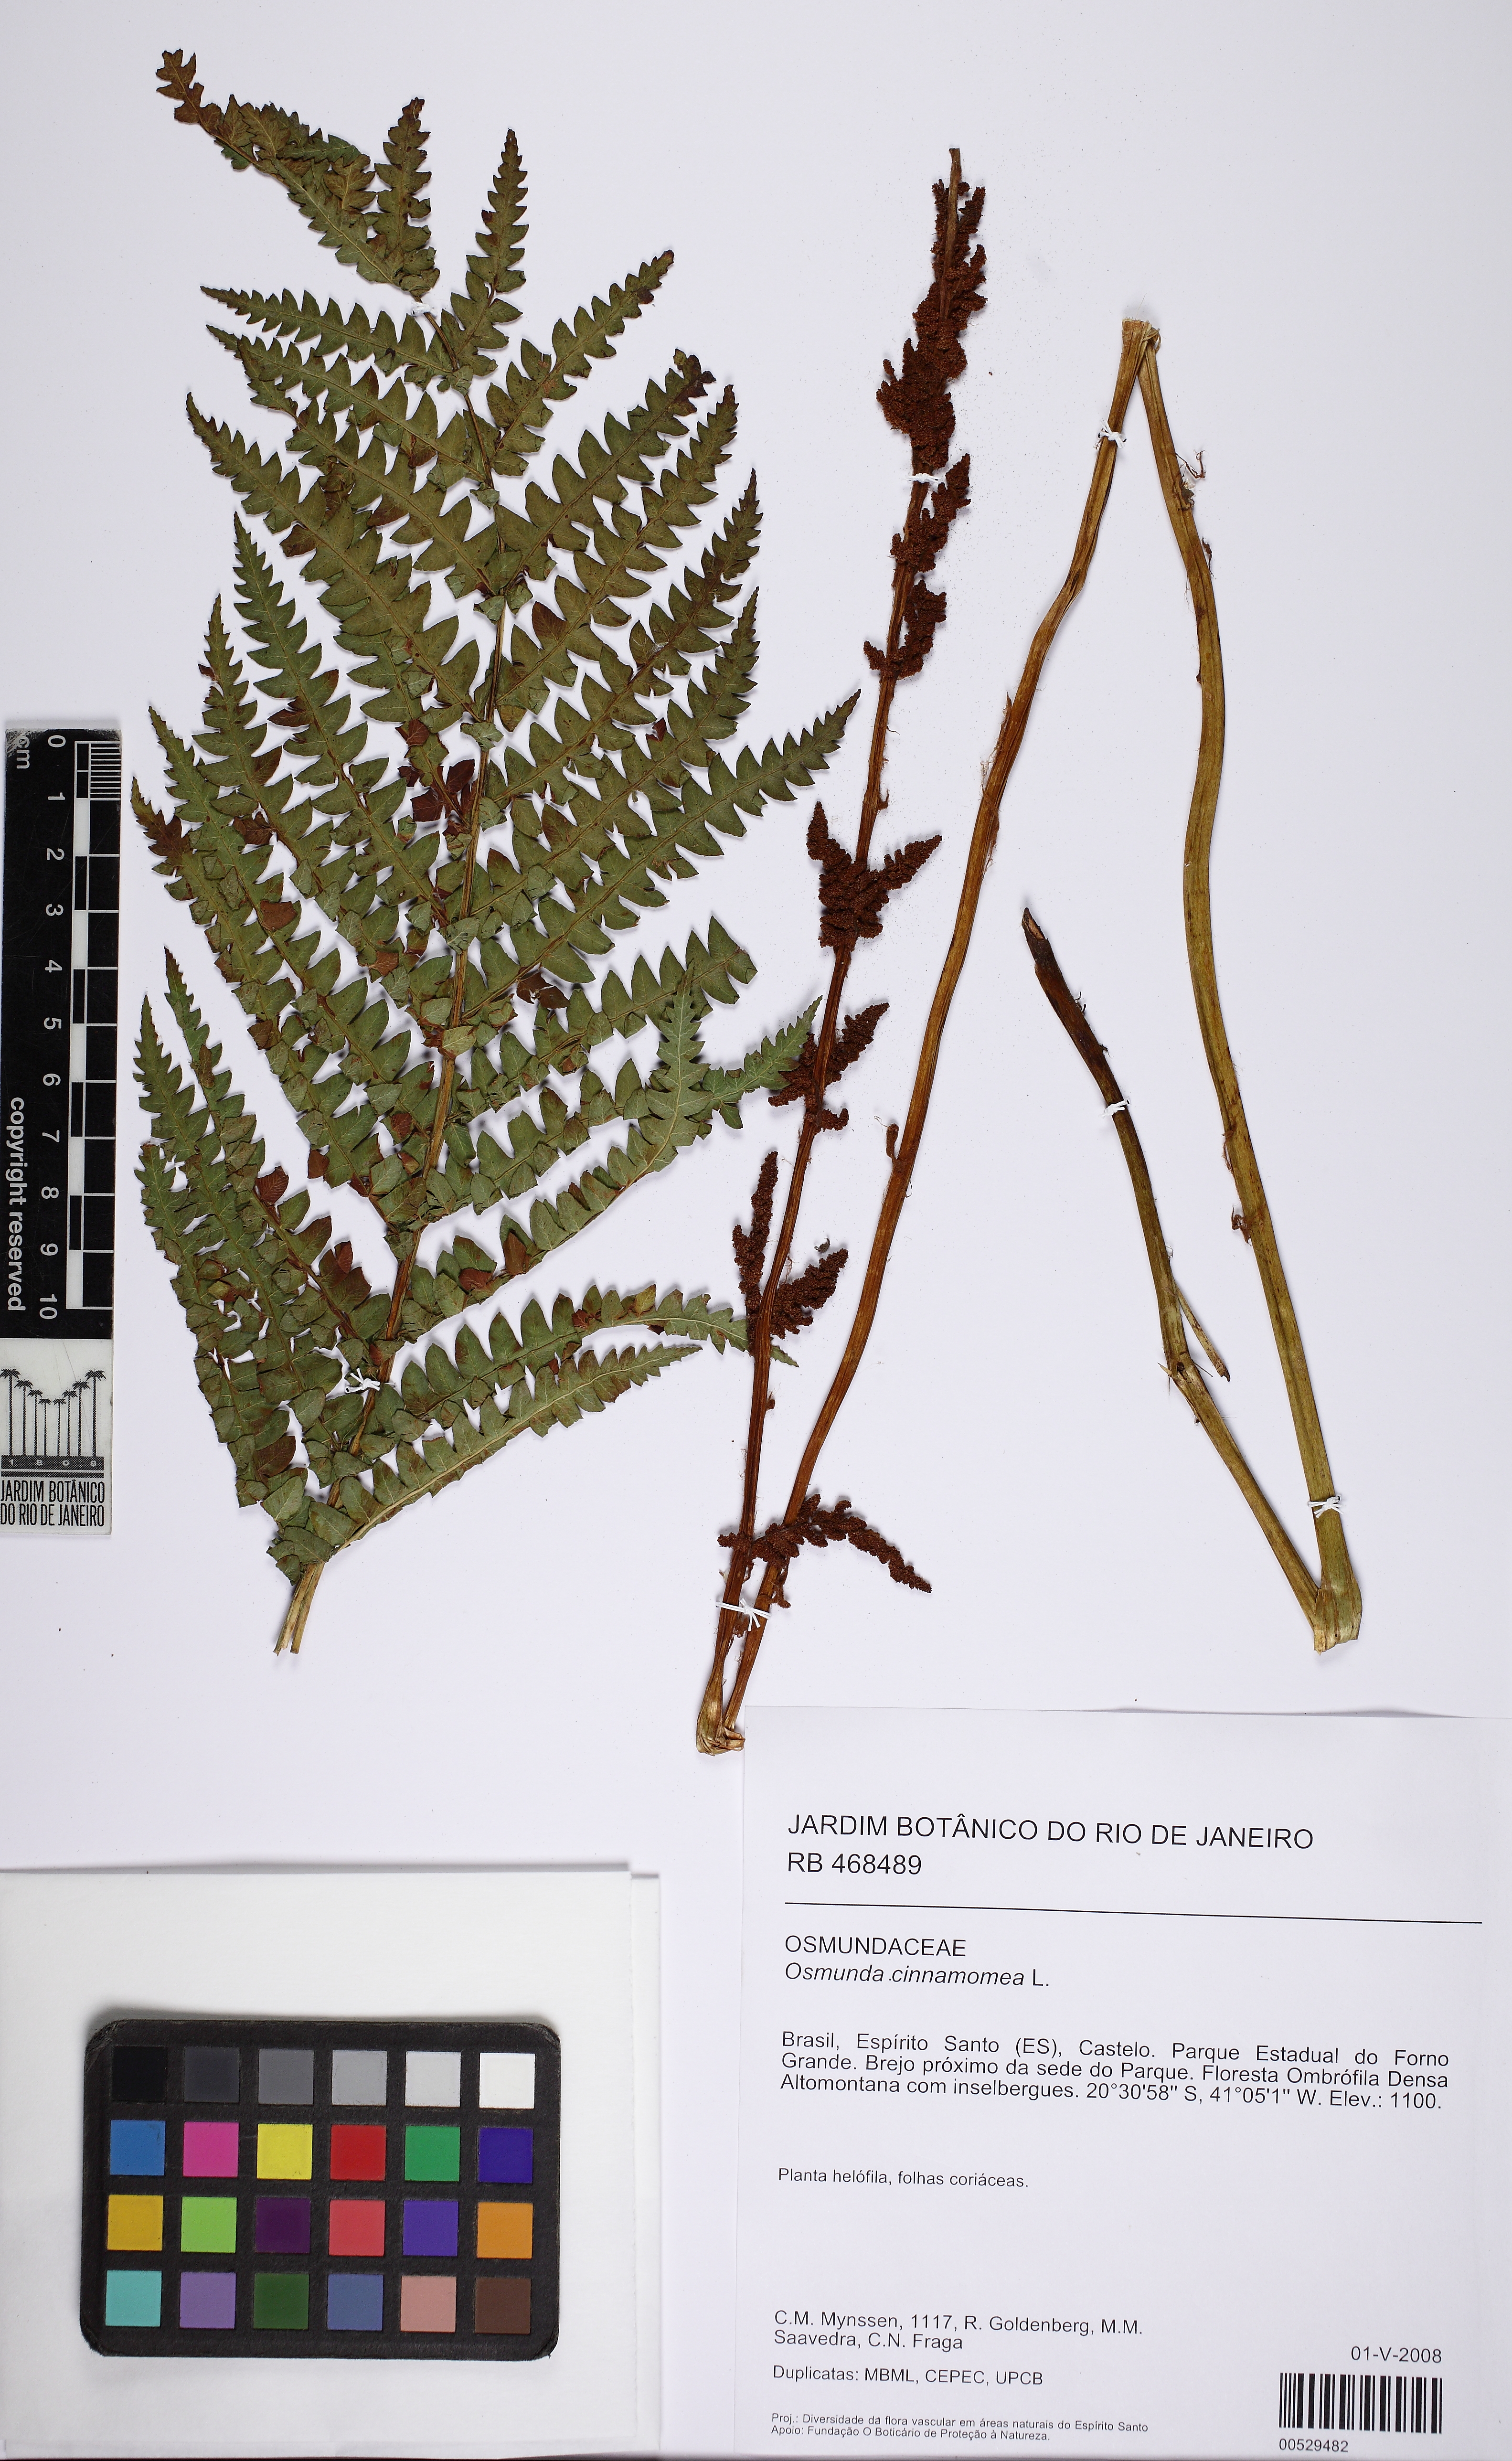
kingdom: Plantae
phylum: Tracheophyta
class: Polypodiopsida
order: Osmundales
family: Osmundaceae
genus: Osmundastrum
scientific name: Osmundastrum cinnamomeum
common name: Cinnamon fern
